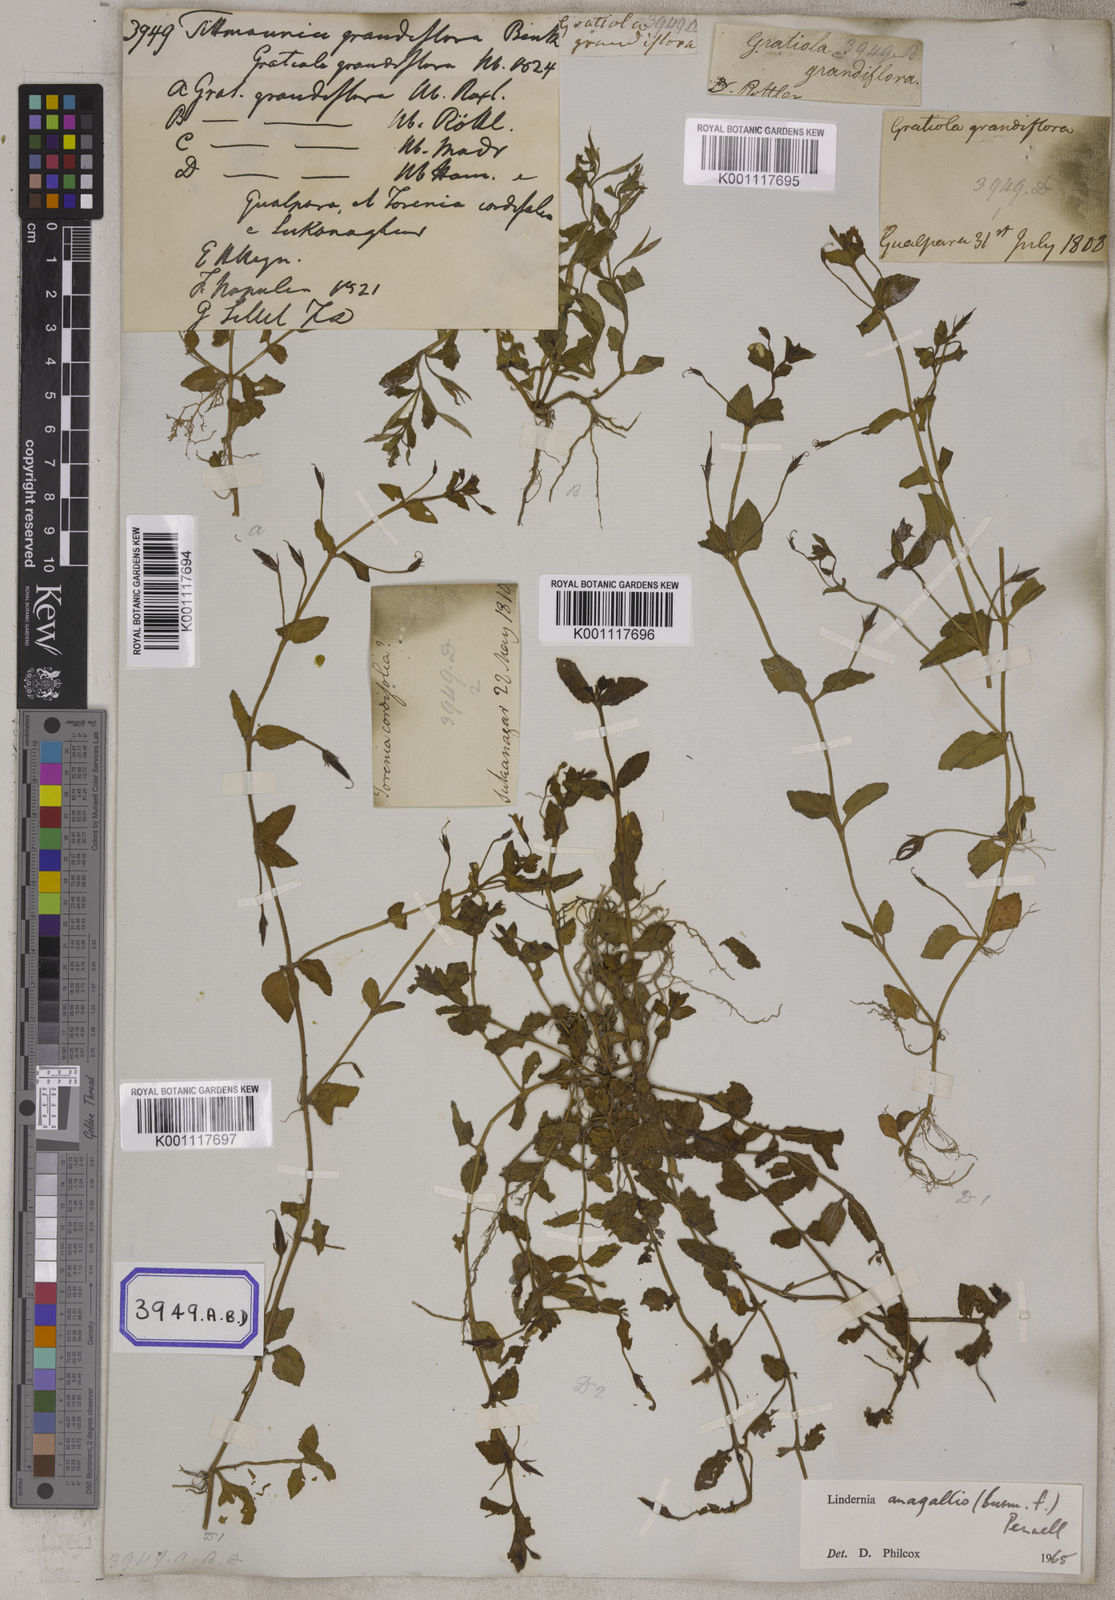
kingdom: Plantae
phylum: Tracheophyta
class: Magnoliopsida
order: Lamiales
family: Linderniaceae
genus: Torenia
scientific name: Torenia anagallis
